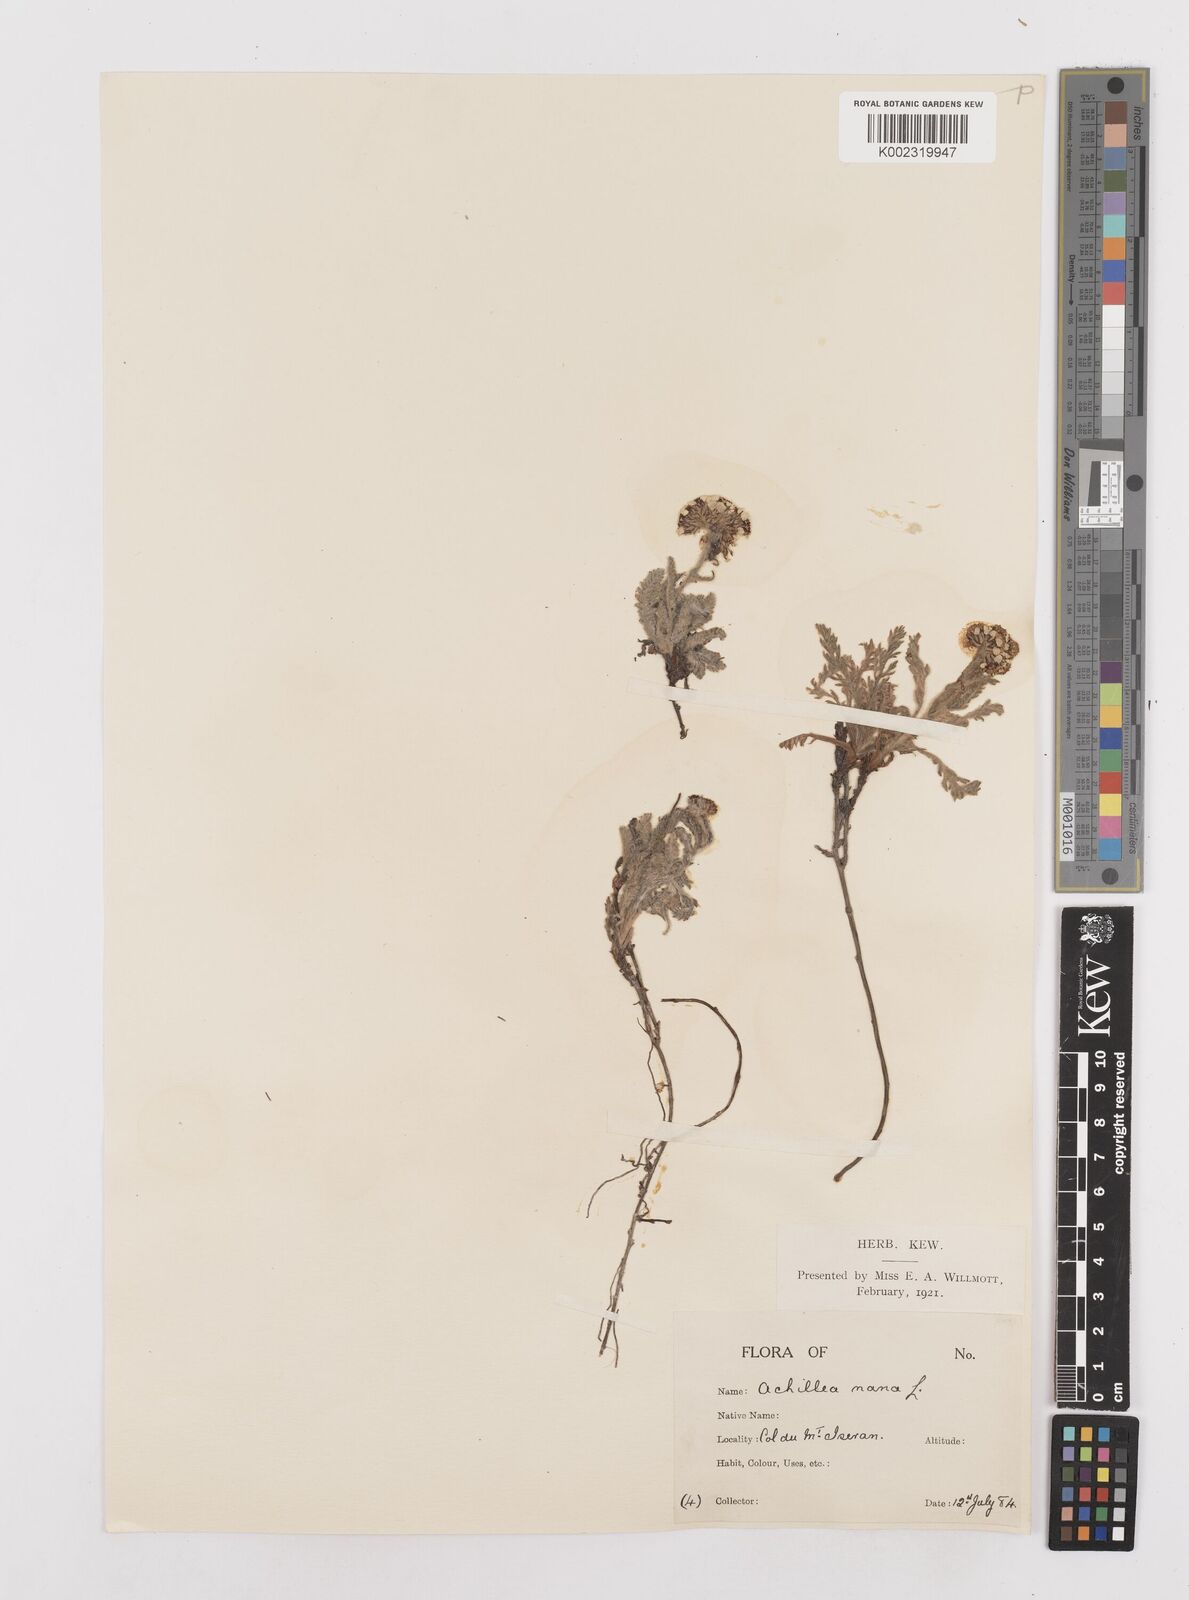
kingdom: Plantae
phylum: Tracheophyta
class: Magnoliopsida
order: Asterales
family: Asteraceae
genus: Achillea
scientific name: Achillea
